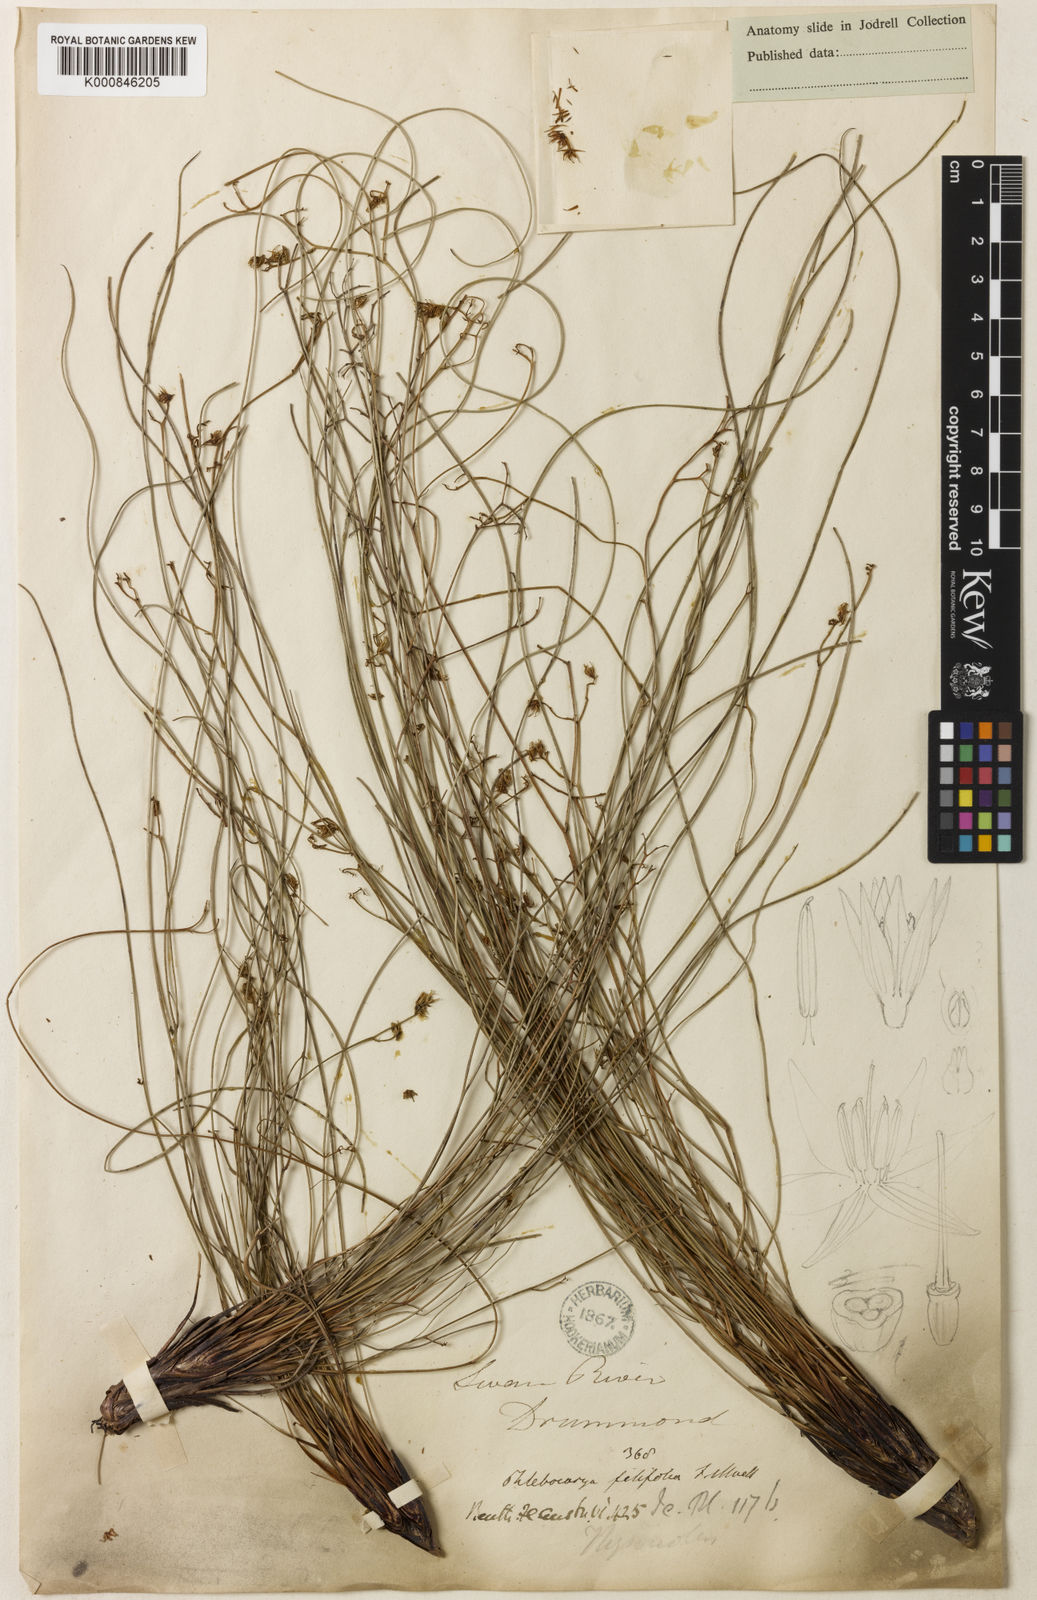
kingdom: Plantae
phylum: Tracheophyta
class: Liliopsida
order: Commelinales
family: Haemodoraceae
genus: Phlebocarya
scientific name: Phlebocarya filifolia
